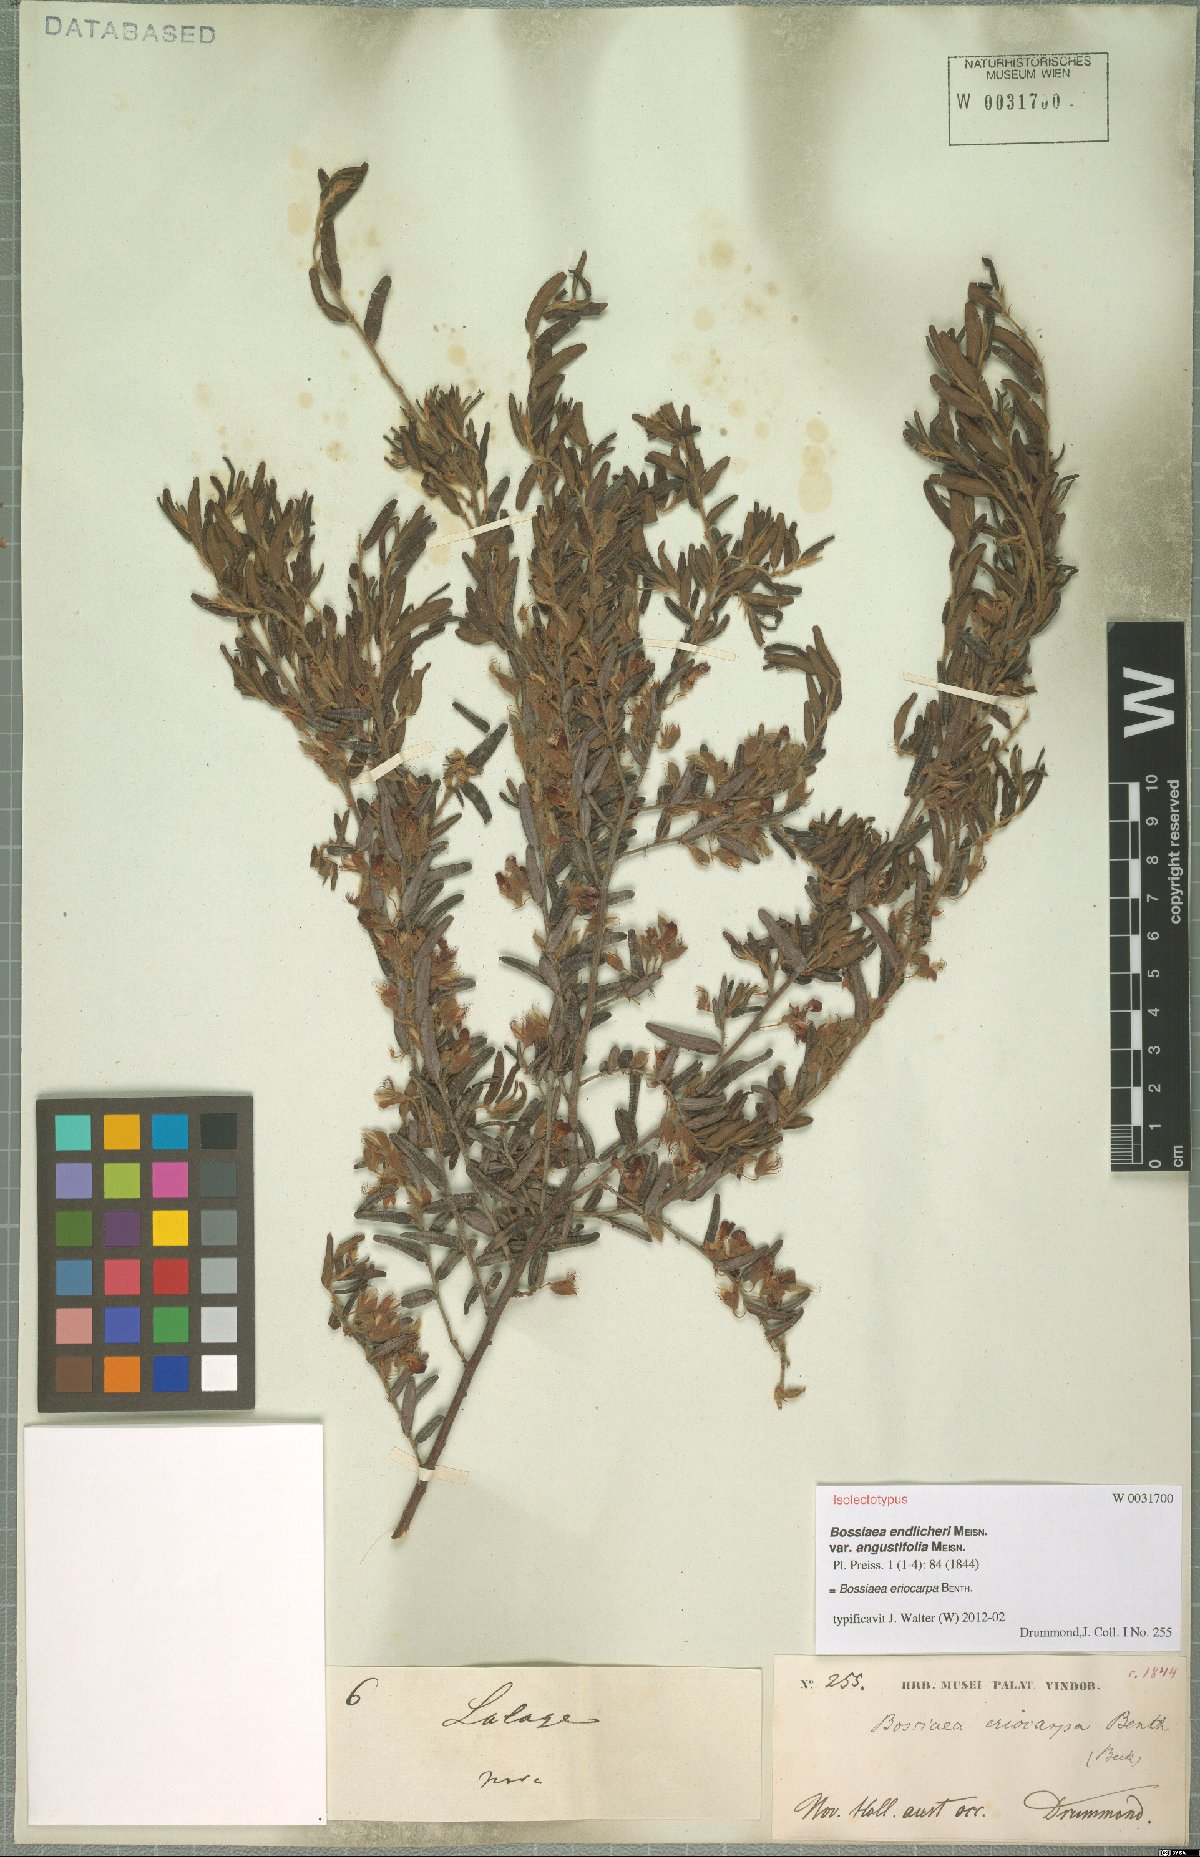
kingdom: Plantae
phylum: Tracheophyta
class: Magnoliopsida
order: Fabales
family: Fabaceae
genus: Bossiaea
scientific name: Bossiaea eriocarpa
